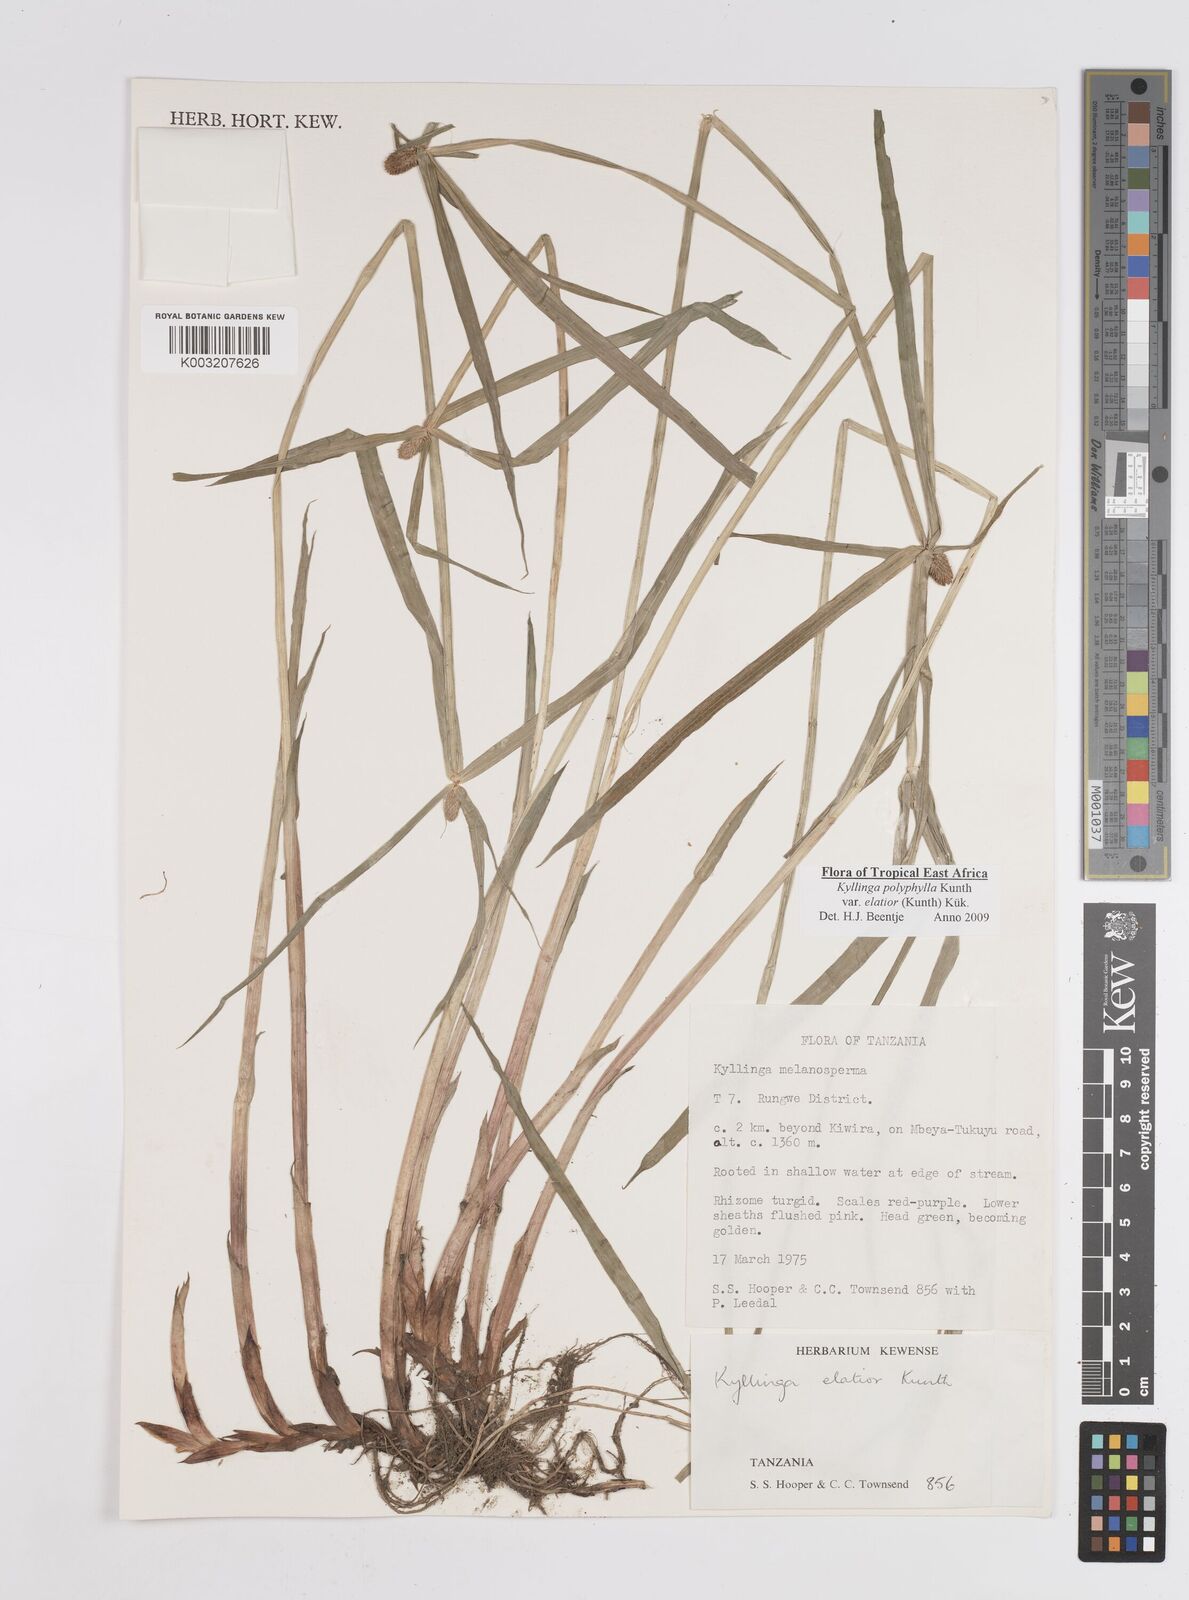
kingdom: Plantae
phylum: Tracheophyta
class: Liliopsida
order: Poales
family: Cyperaceae
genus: Cyperus
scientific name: Cyperus
